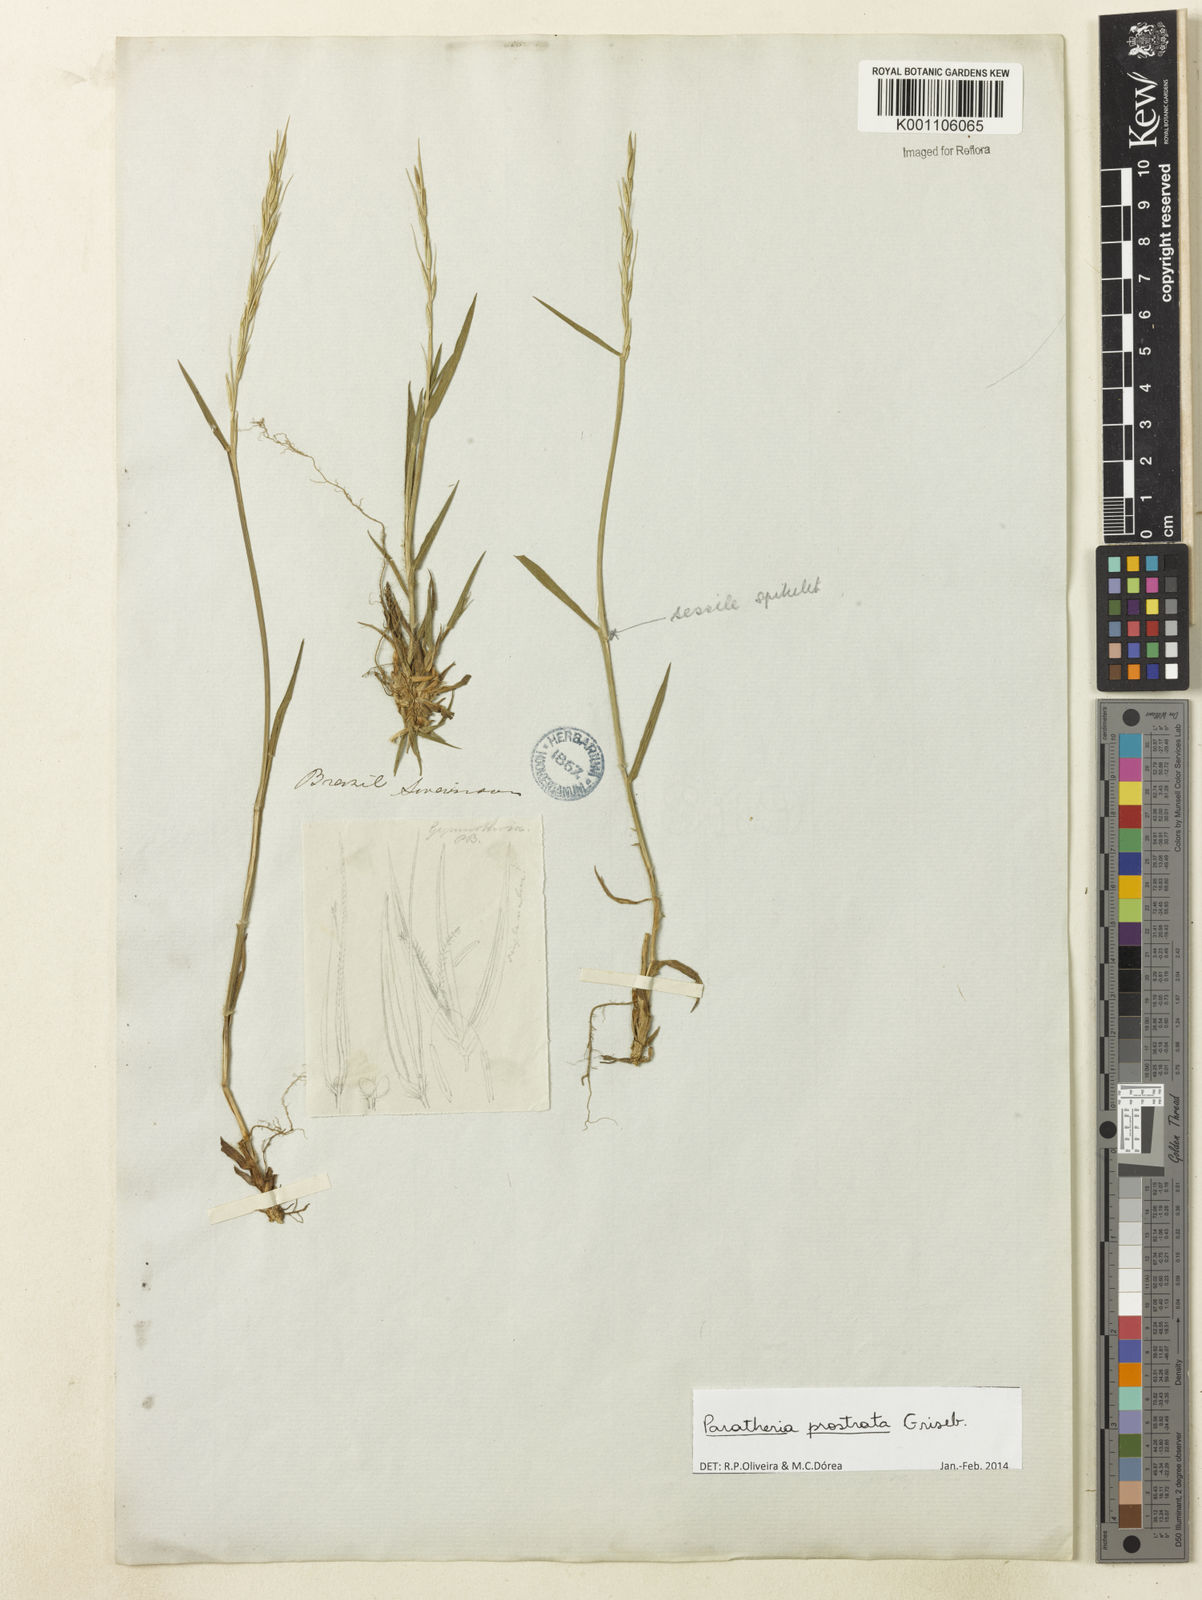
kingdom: Plantae
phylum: Tracheophyta
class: Liliopsida
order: Poales
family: Poaceae
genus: Paratheria
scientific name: Paratheria prostrata
